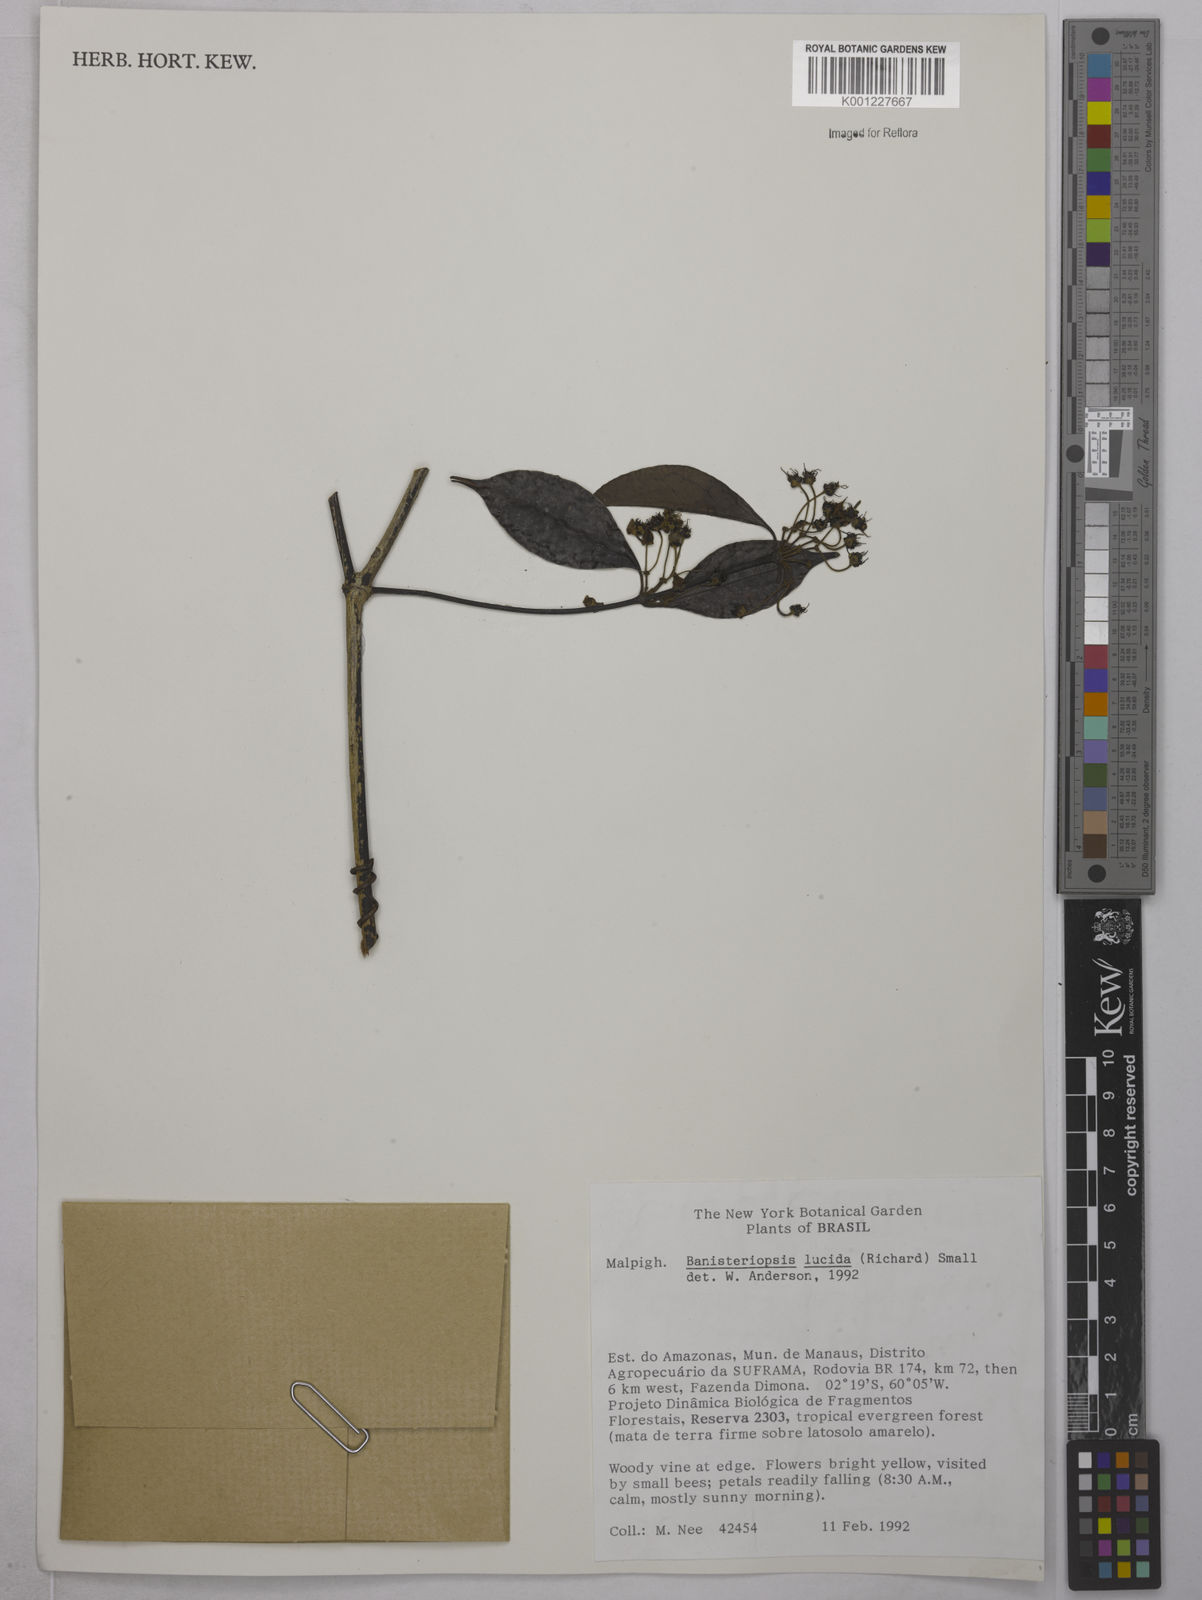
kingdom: Plantae
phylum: Tracheophyta
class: Magnoliopsida
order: Malpighiales
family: Malpighiaceae
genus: Diplopterys
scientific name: Diplopterys lucida
